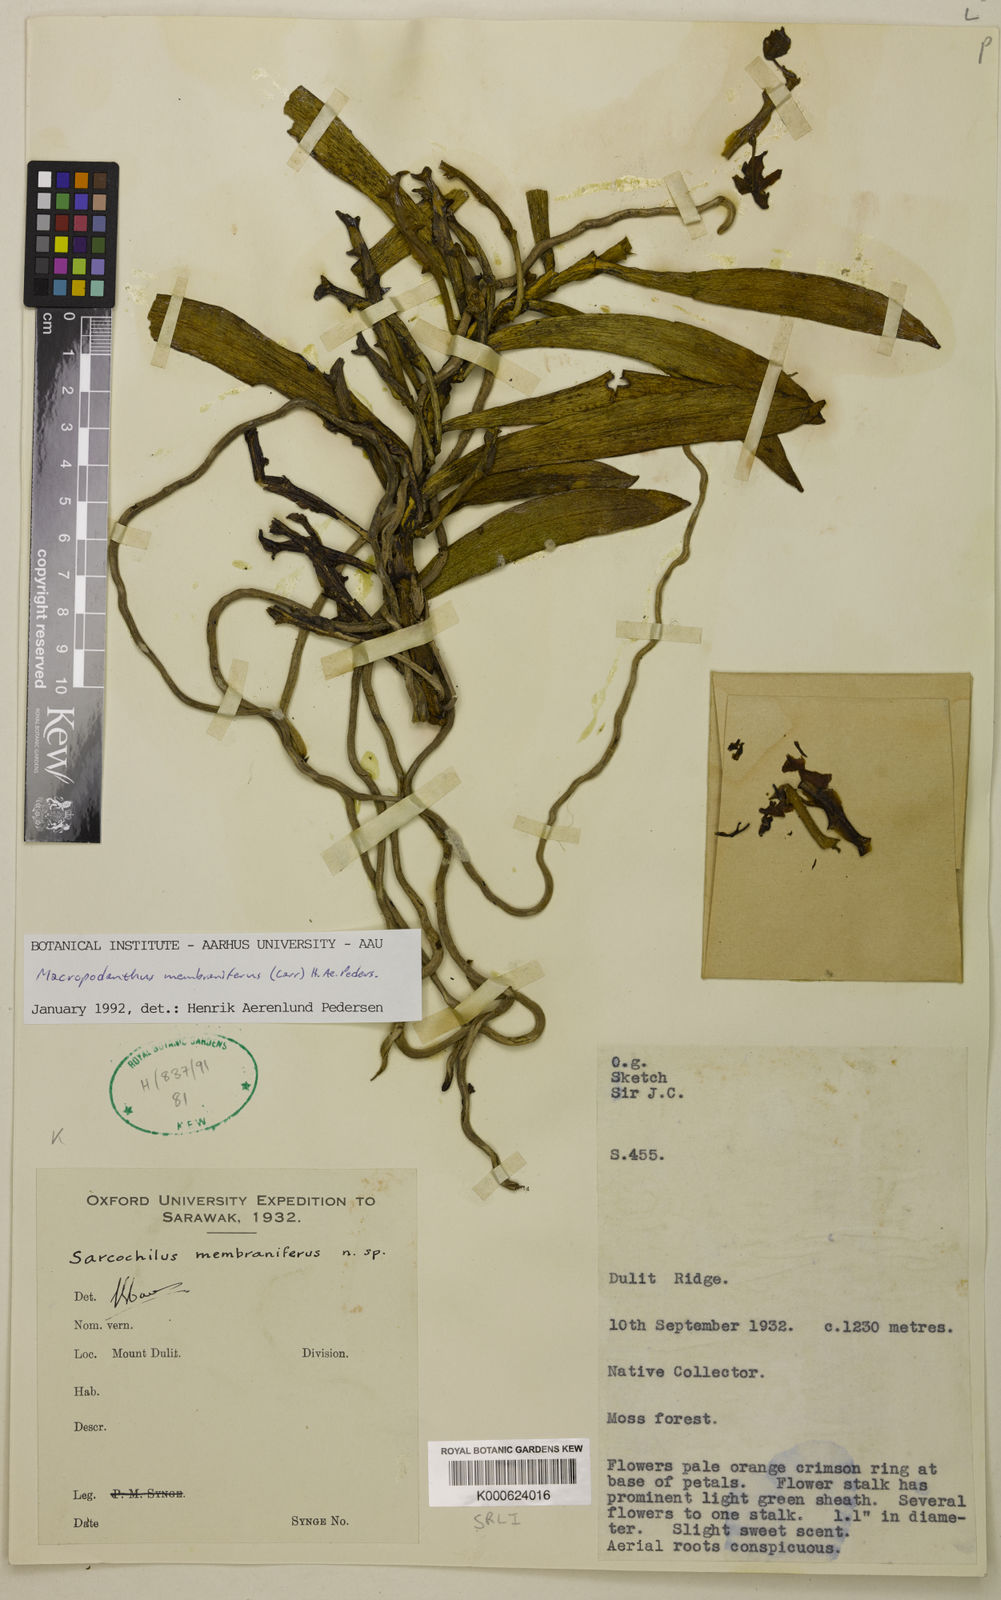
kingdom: Plantae
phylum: Tracheophyta
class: Liliopsida
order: Asparagales
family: Orchidaceae
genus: Macropodanthus
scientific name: Macropodanthus
